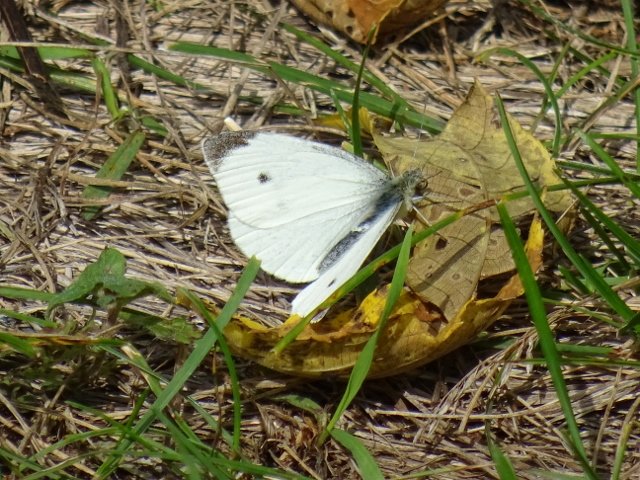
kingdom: Animalia
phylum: Arthropoda
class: Insecta
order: Lepidoptera
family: Pieridae
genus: Pieris
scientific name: Pieris rapae
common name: Cabbage White
